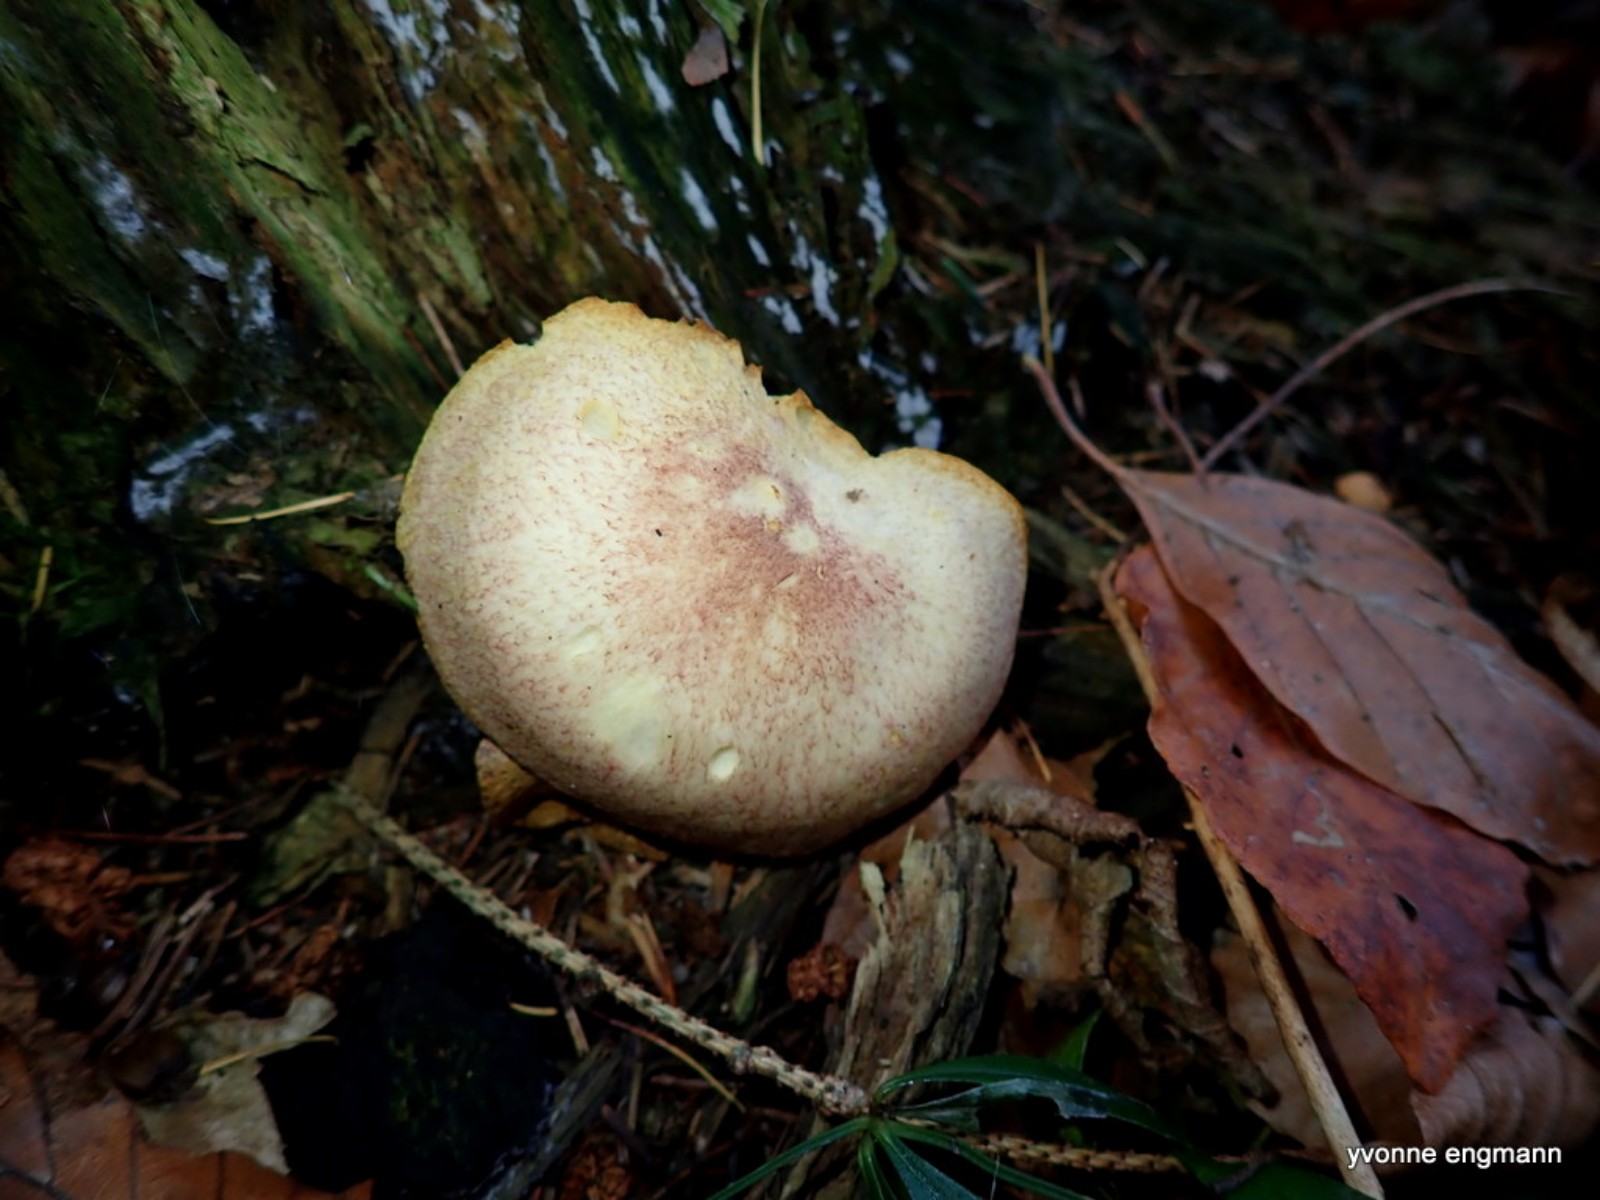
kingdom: Fungi
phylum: Basidiomycota
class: Agaricomycetes
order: Agaricales
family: Tricholomataceae
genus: Tricholomopsis
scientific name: Tricholomopsis rutilans
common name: purpur-væbnerhat
